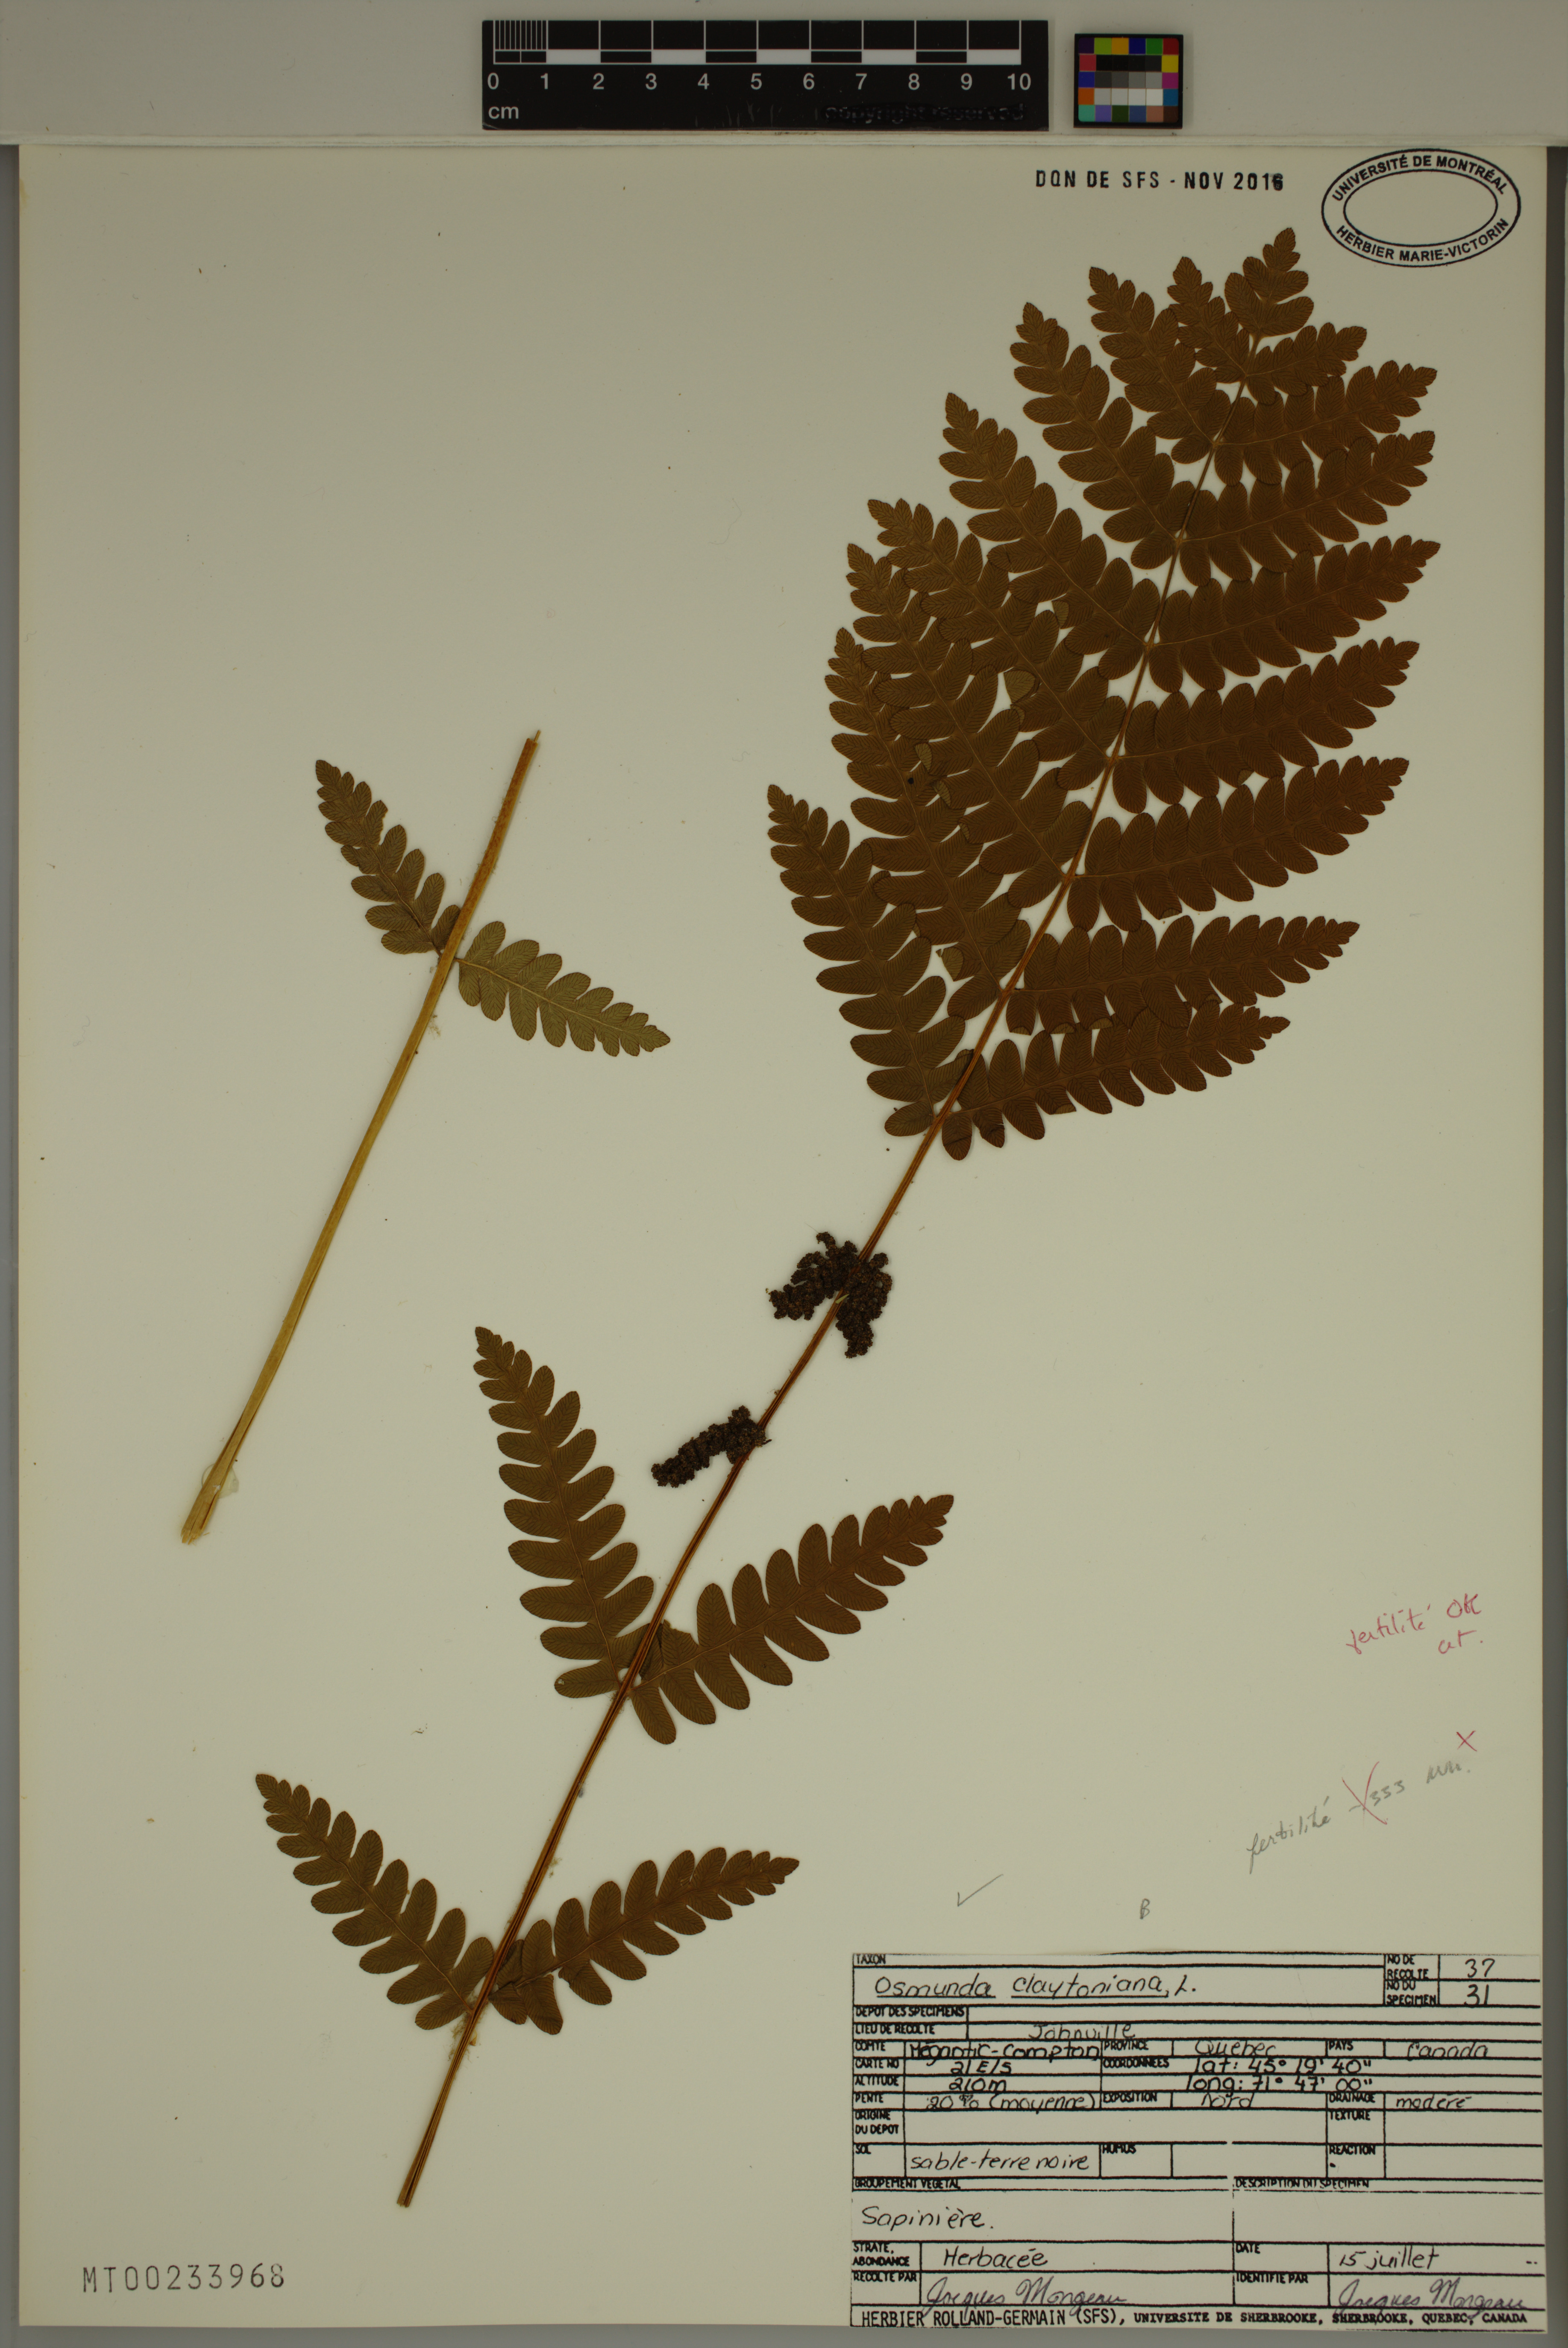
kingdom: Plantae
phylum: Tracheophyta
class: Polypodiopsida
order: Osmundales
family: Osmundaceae
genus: Claytosmunda
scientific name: Claytosmunda claytoniana
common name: Clayton's fern
